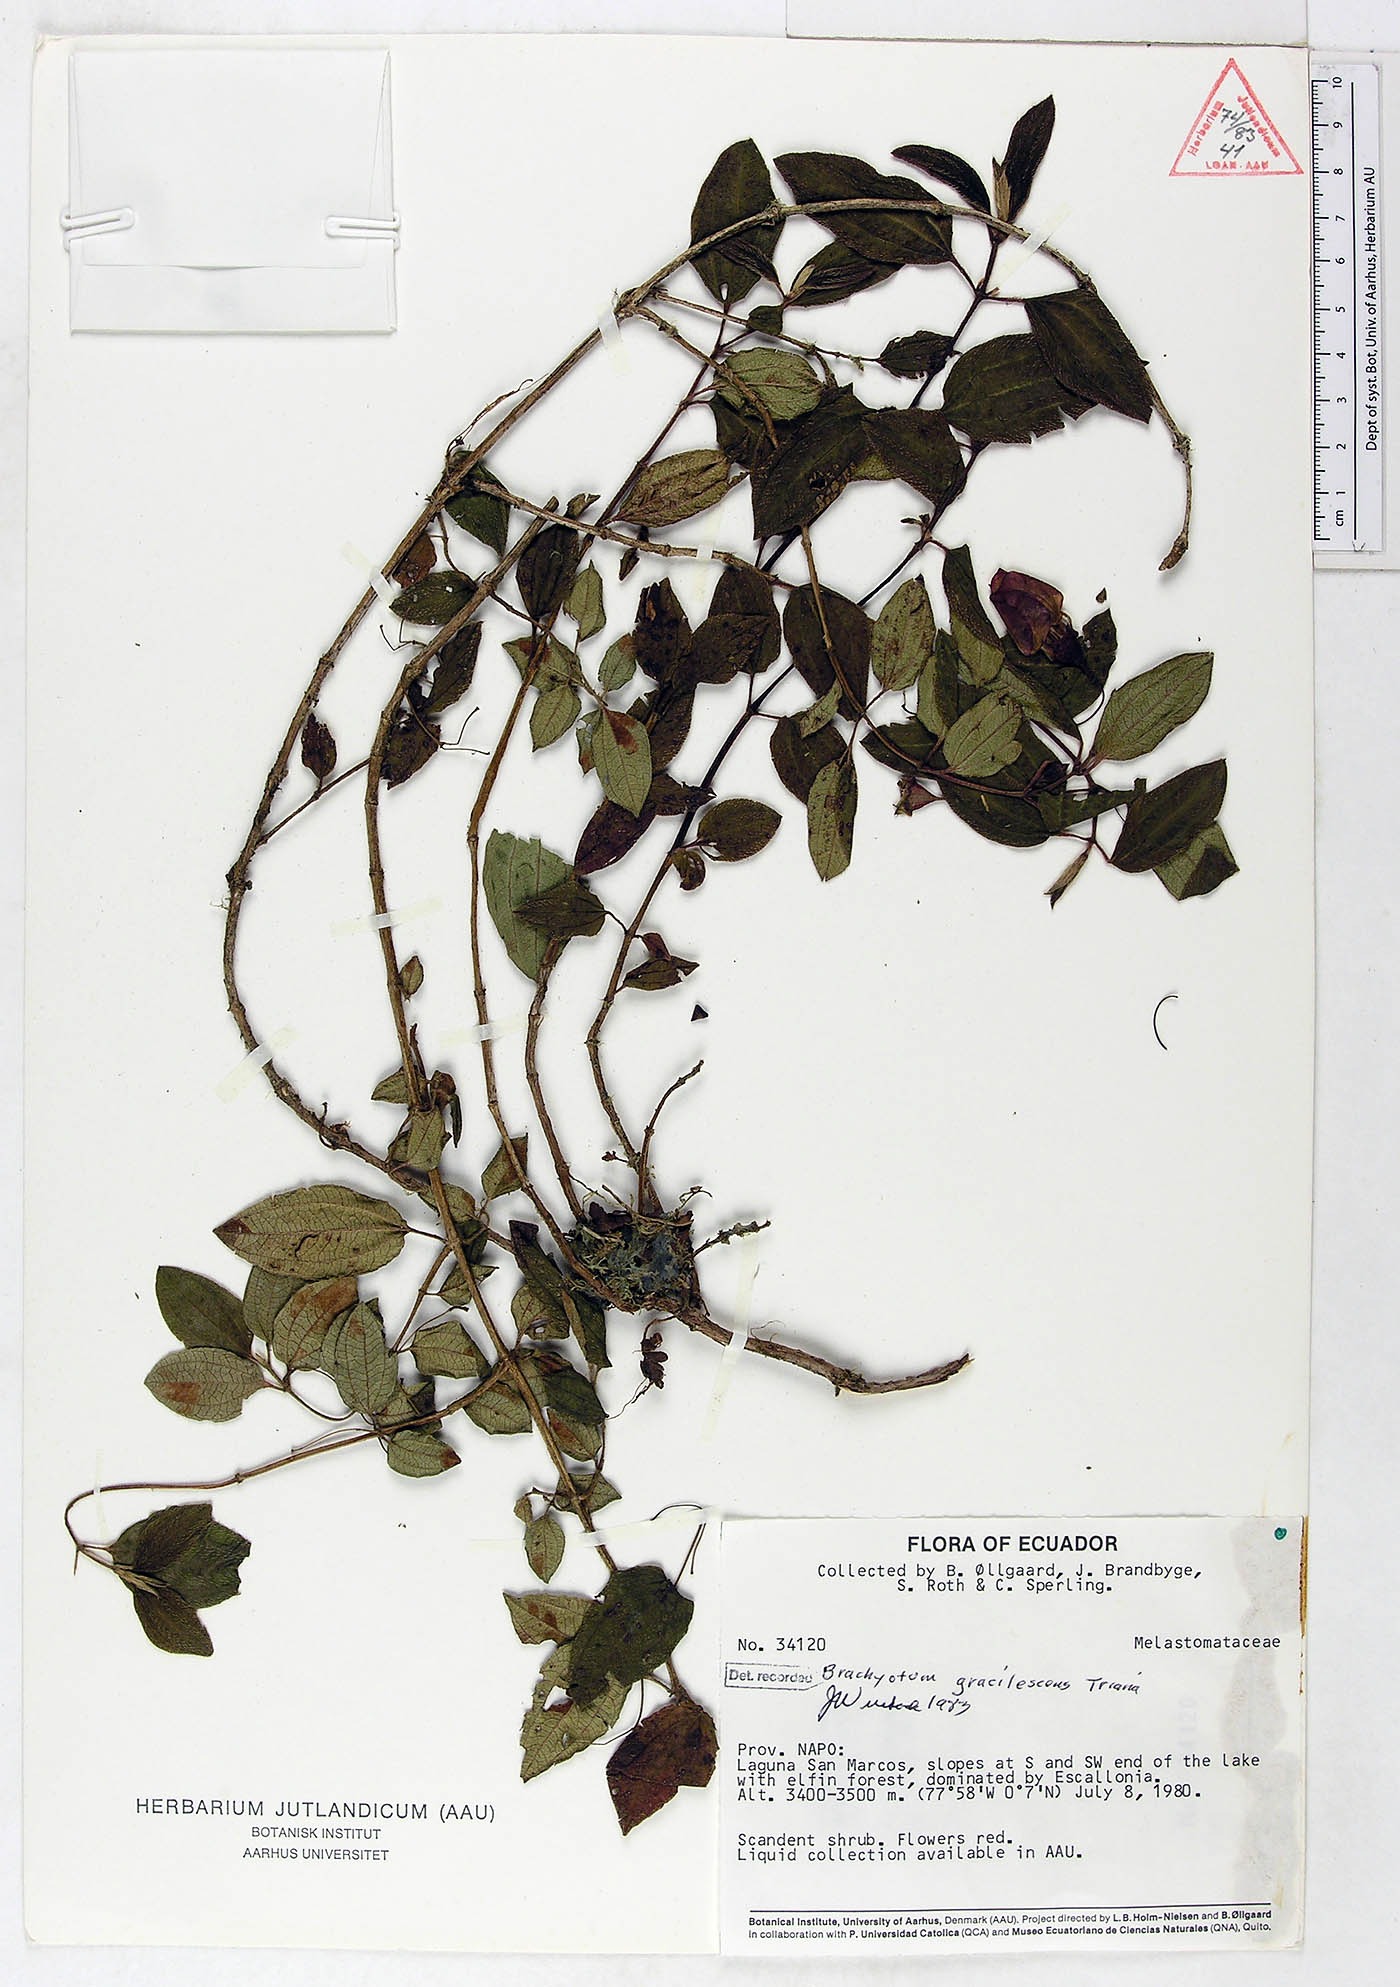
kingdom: Plantae
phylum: Tracheophyta
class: Magnoliopsida
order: Myrtales
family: Melastomataceae
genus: Brachyotum
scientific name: Brachyotum gracilescens
